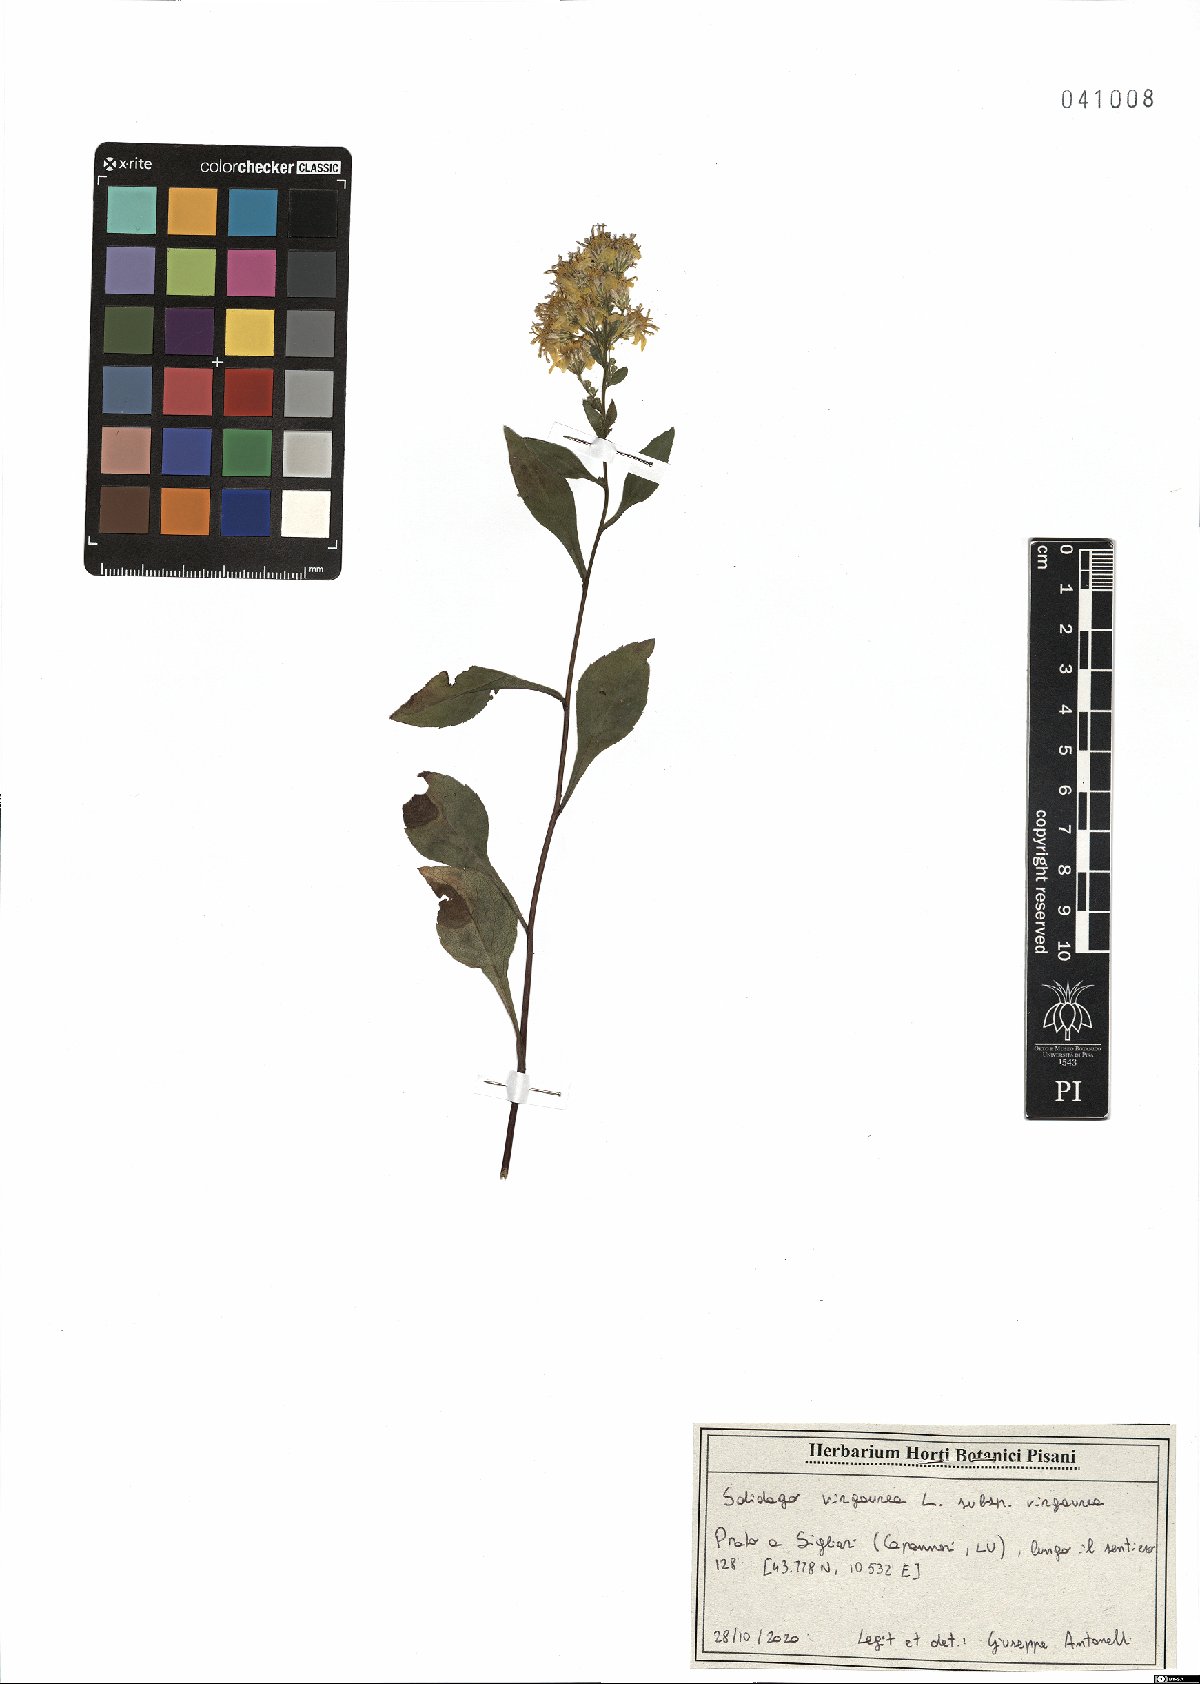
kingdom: Plantae
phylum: Tracheophyta
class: Magnoliopsida
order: Asterales
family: Asteraceae
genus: Solidago
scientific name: Solidago virgaurea
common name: Goldenrod
